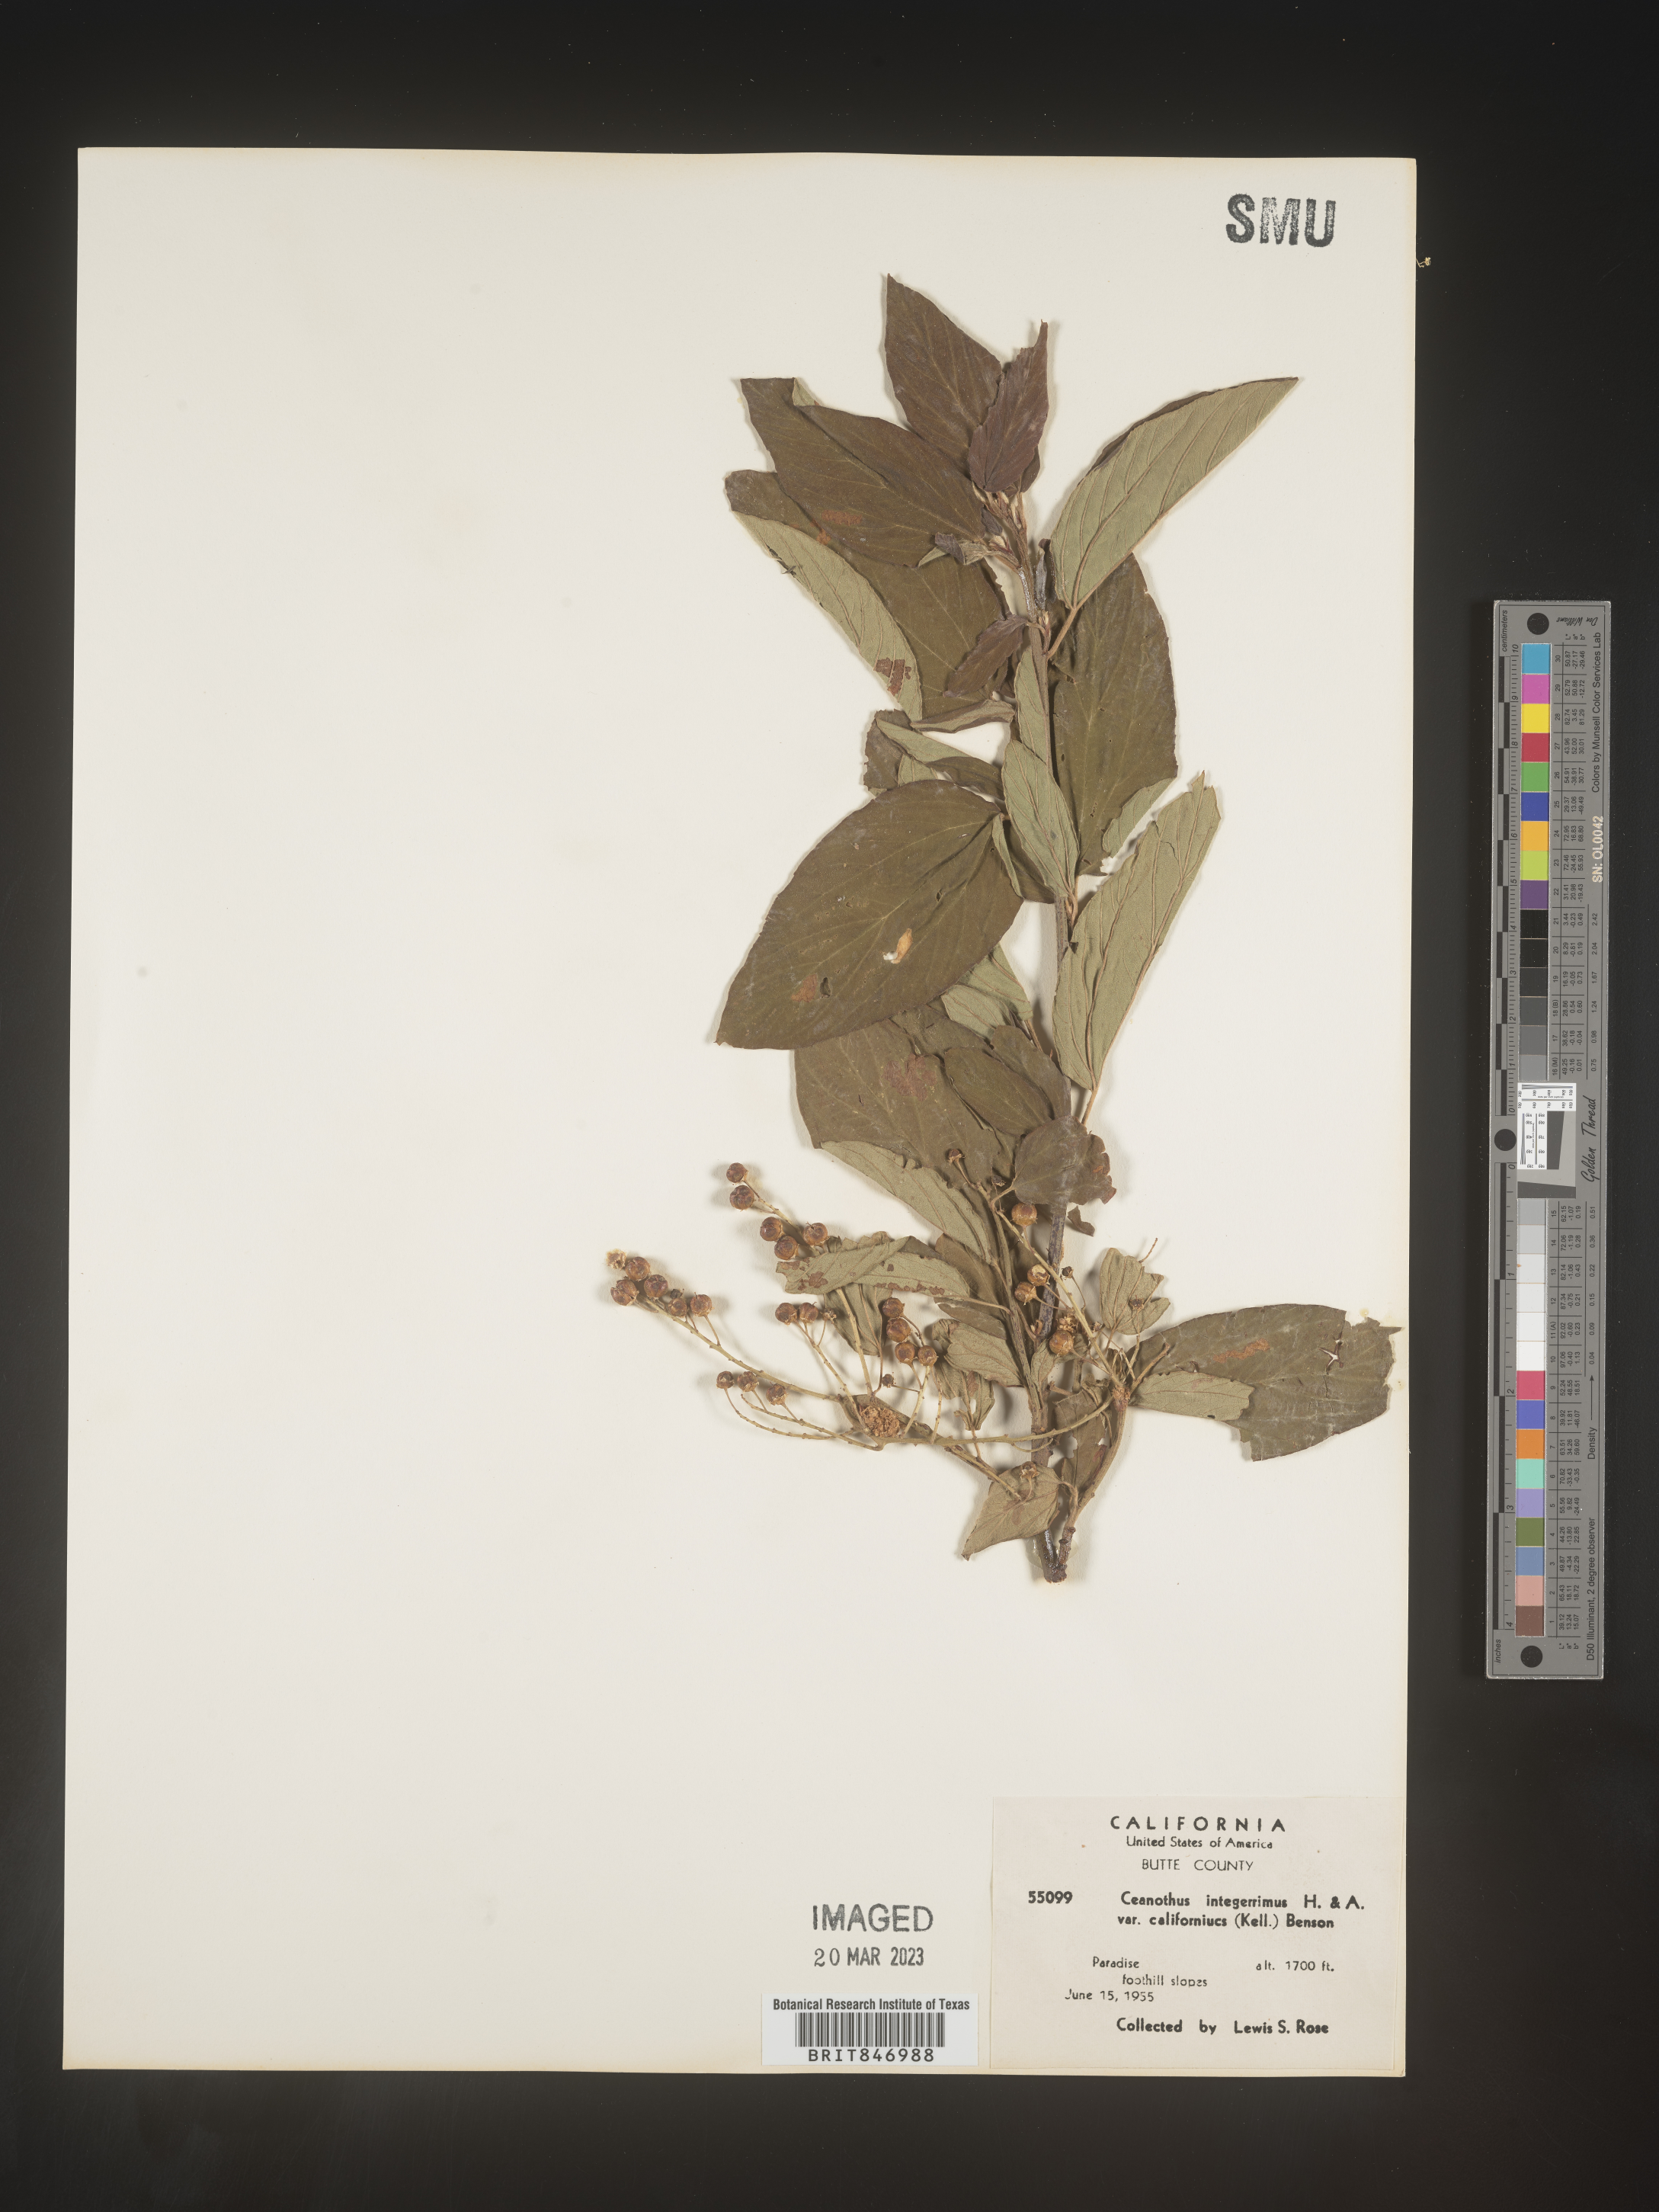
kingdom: Plantae
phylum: Tracheophyta
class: Magnoliopsida
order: Rosales
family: Rhamnaceae
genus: Ceanothus
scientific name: Ceanothus integerrimus
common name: Deerbrush ceanothus
